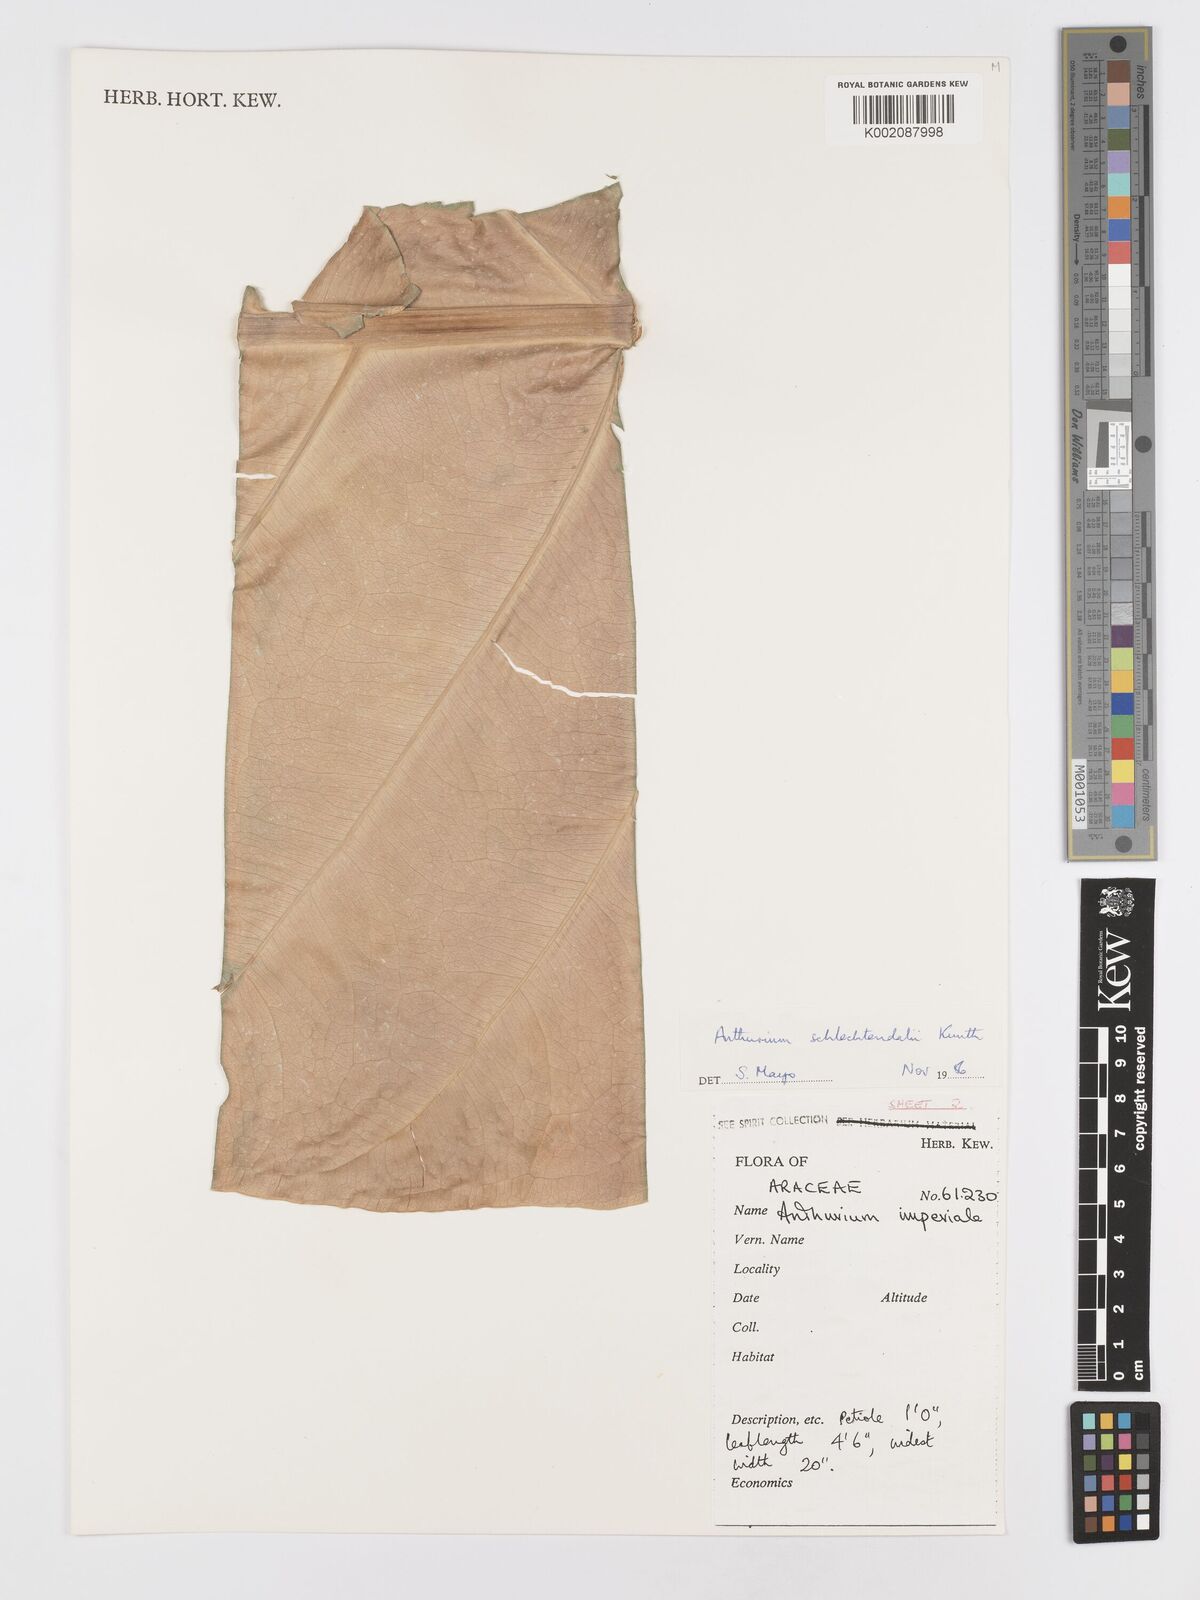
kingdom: Plantae
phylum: Tracheophyta
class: Liliopsida
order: Alismatales
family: Araceae
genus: Anthurium
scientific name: Anthurium schlechtendalii
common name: Laceleaf
